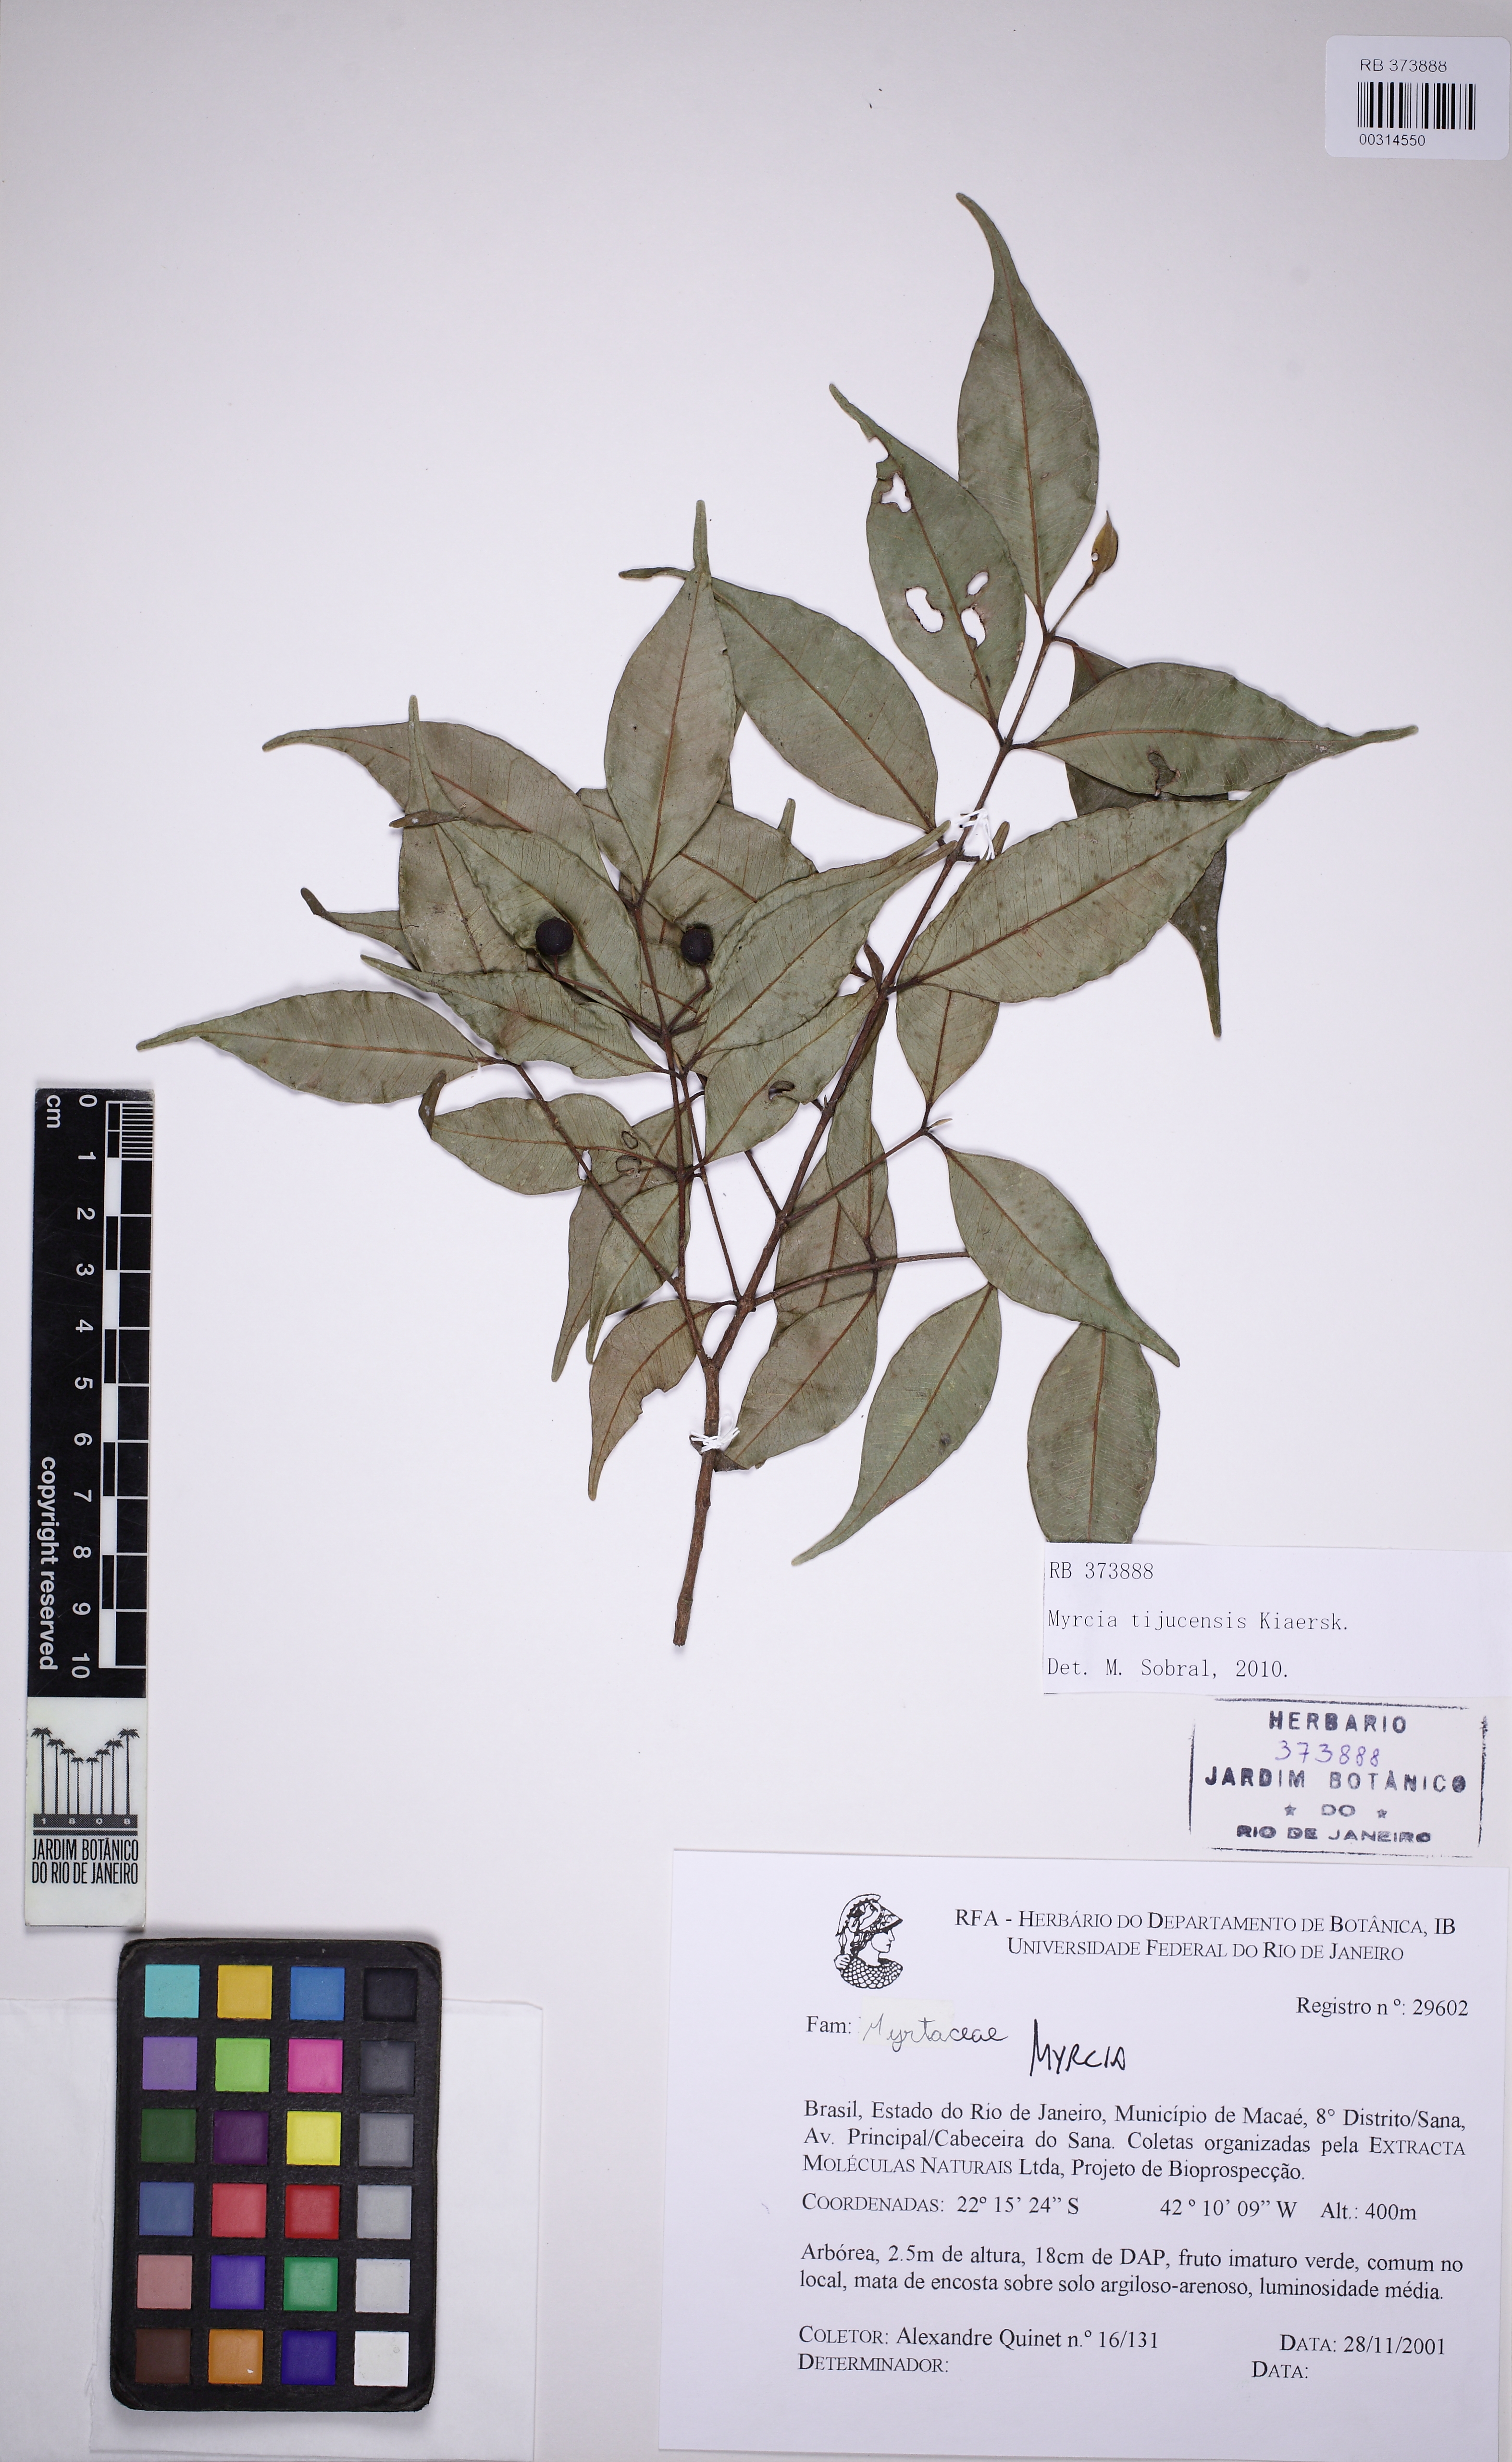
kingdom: Plantae
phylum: Tracheophyta
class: Magnoliopsida
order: Myrtales
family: Myrtaceae
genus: Myrcia
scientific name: Myrcia tijucensis
